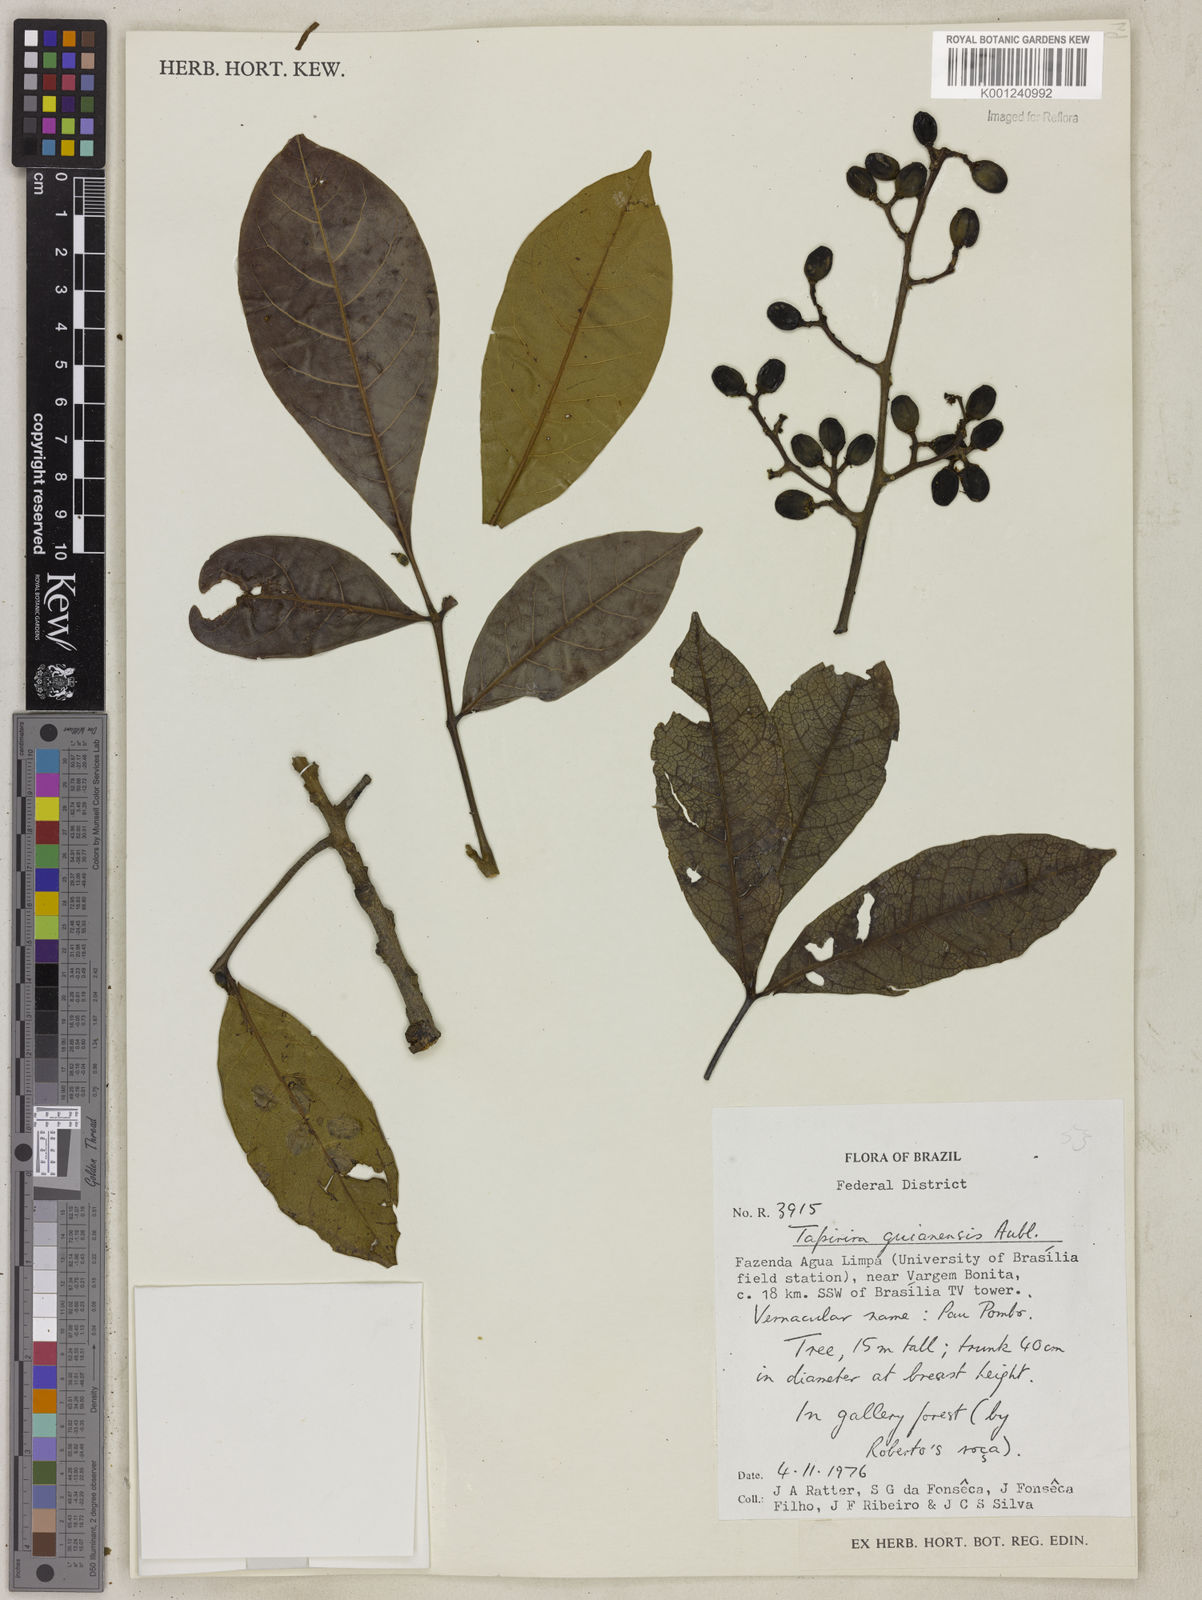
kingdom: Plantae
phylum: Tracheophyta
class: Magnoliopsida
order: Sapindales
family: Anacardiaceae
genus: Tapirira
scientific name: Tapirira guianensis
